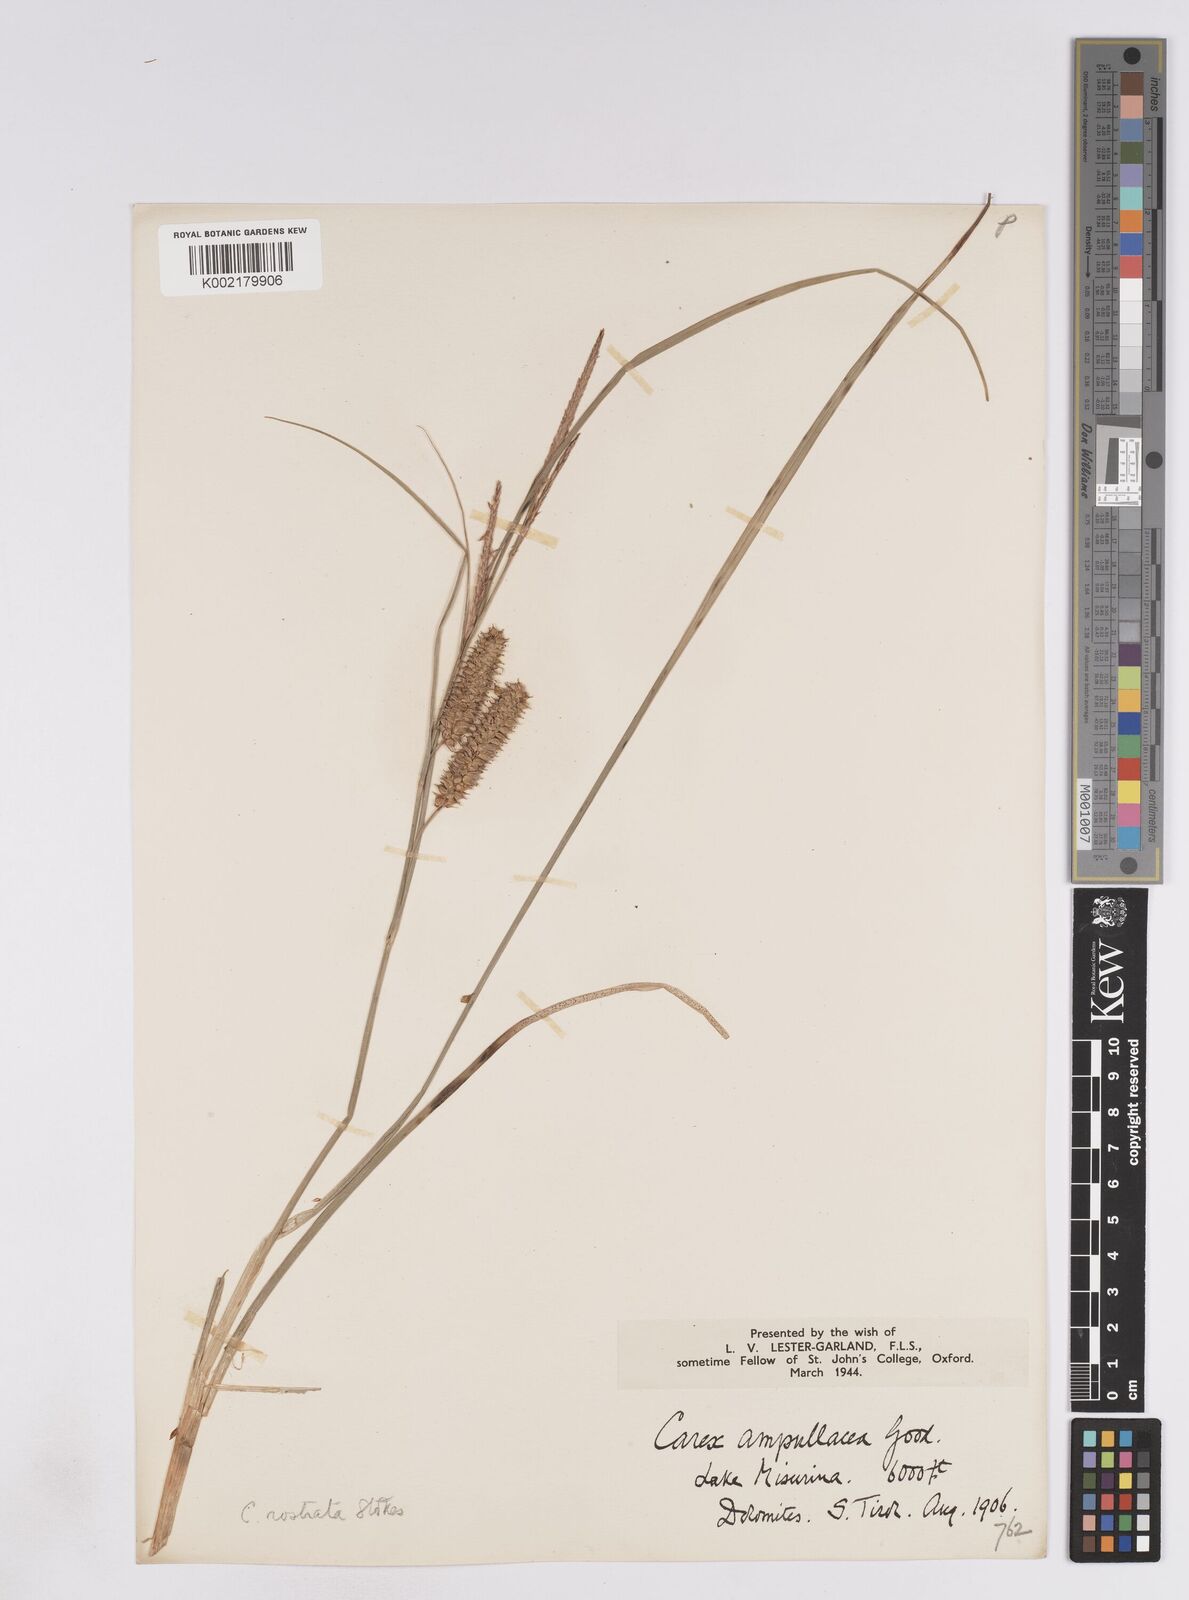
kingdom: Plantae
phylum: Tracheophyta
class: Liliopsida
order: Poales
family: Cyperaceae
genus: Carex
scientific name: Carex rostrata
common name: Bottle sedge
